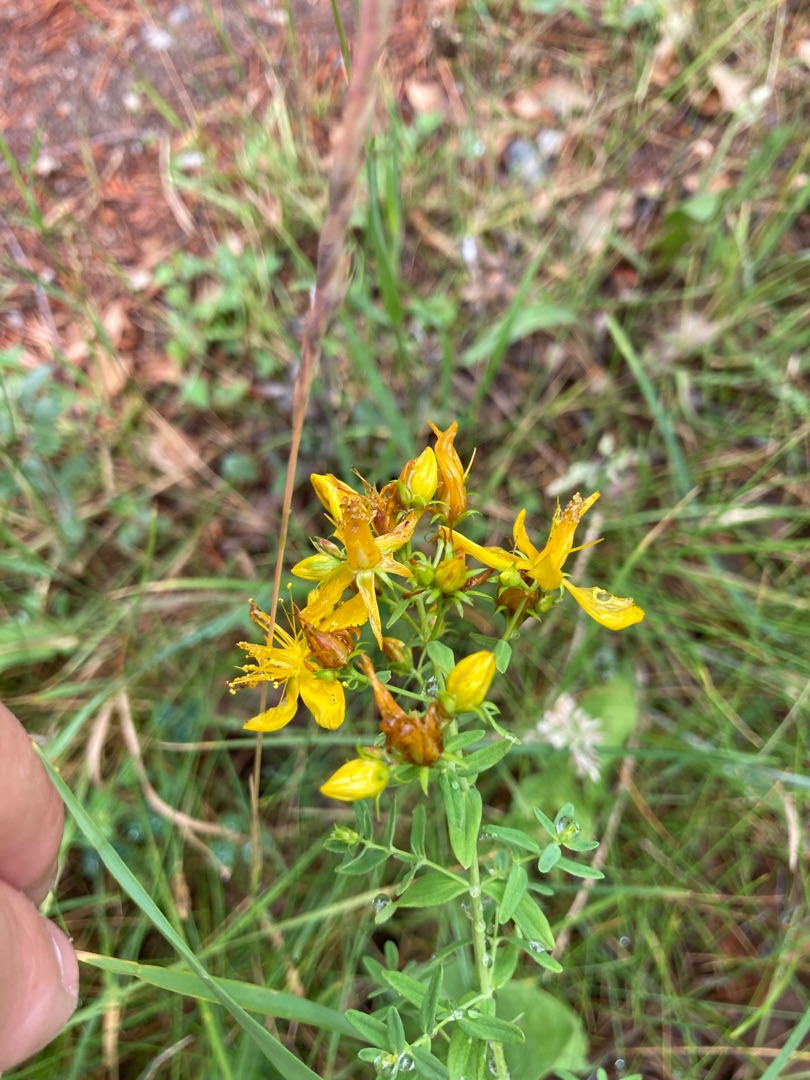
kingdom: Plantae
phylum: Tracheophyta
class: Magnoliopsida
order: Malpighiales
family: Hypericaceae
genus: Hypericum
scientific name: Hypericum perforatum
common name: Prikbladet perikon
